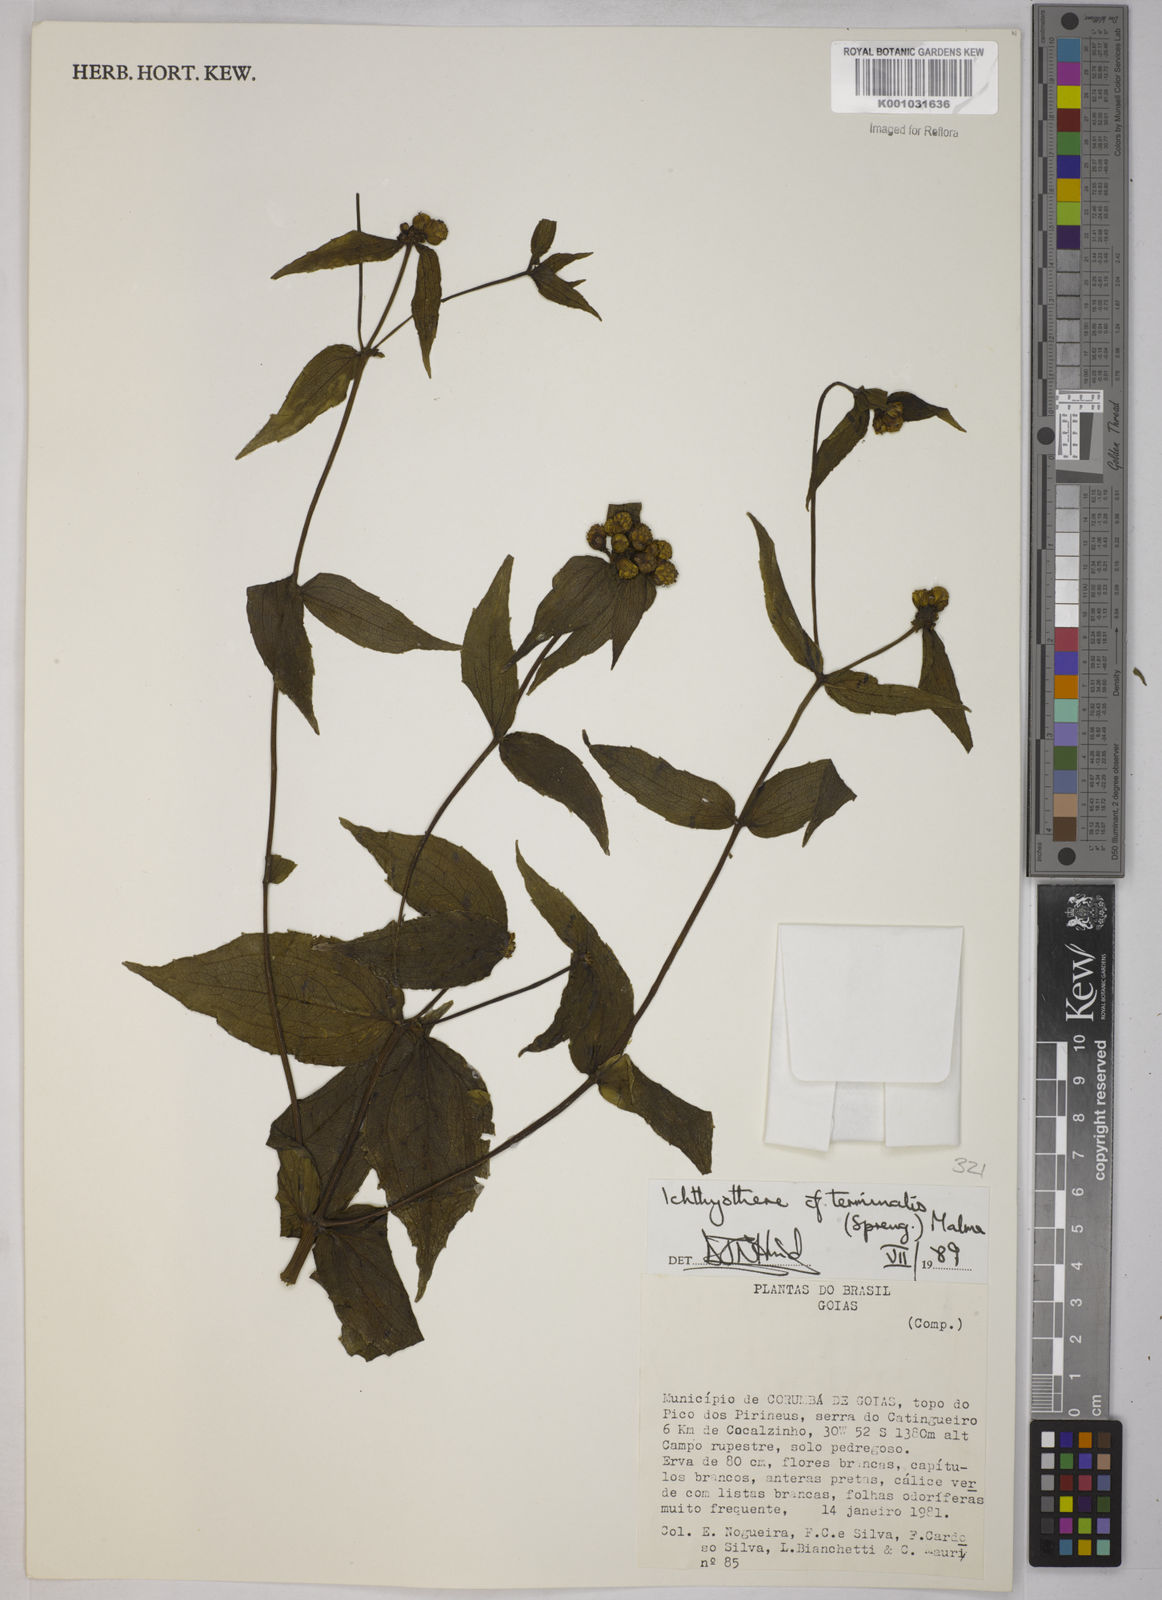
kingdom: Plantae
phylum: Tracheophyta
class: Magnoliopsida
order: Asterales
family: Asteraceae
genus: Ichthyothere
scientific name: Ichthyothere terminalis
